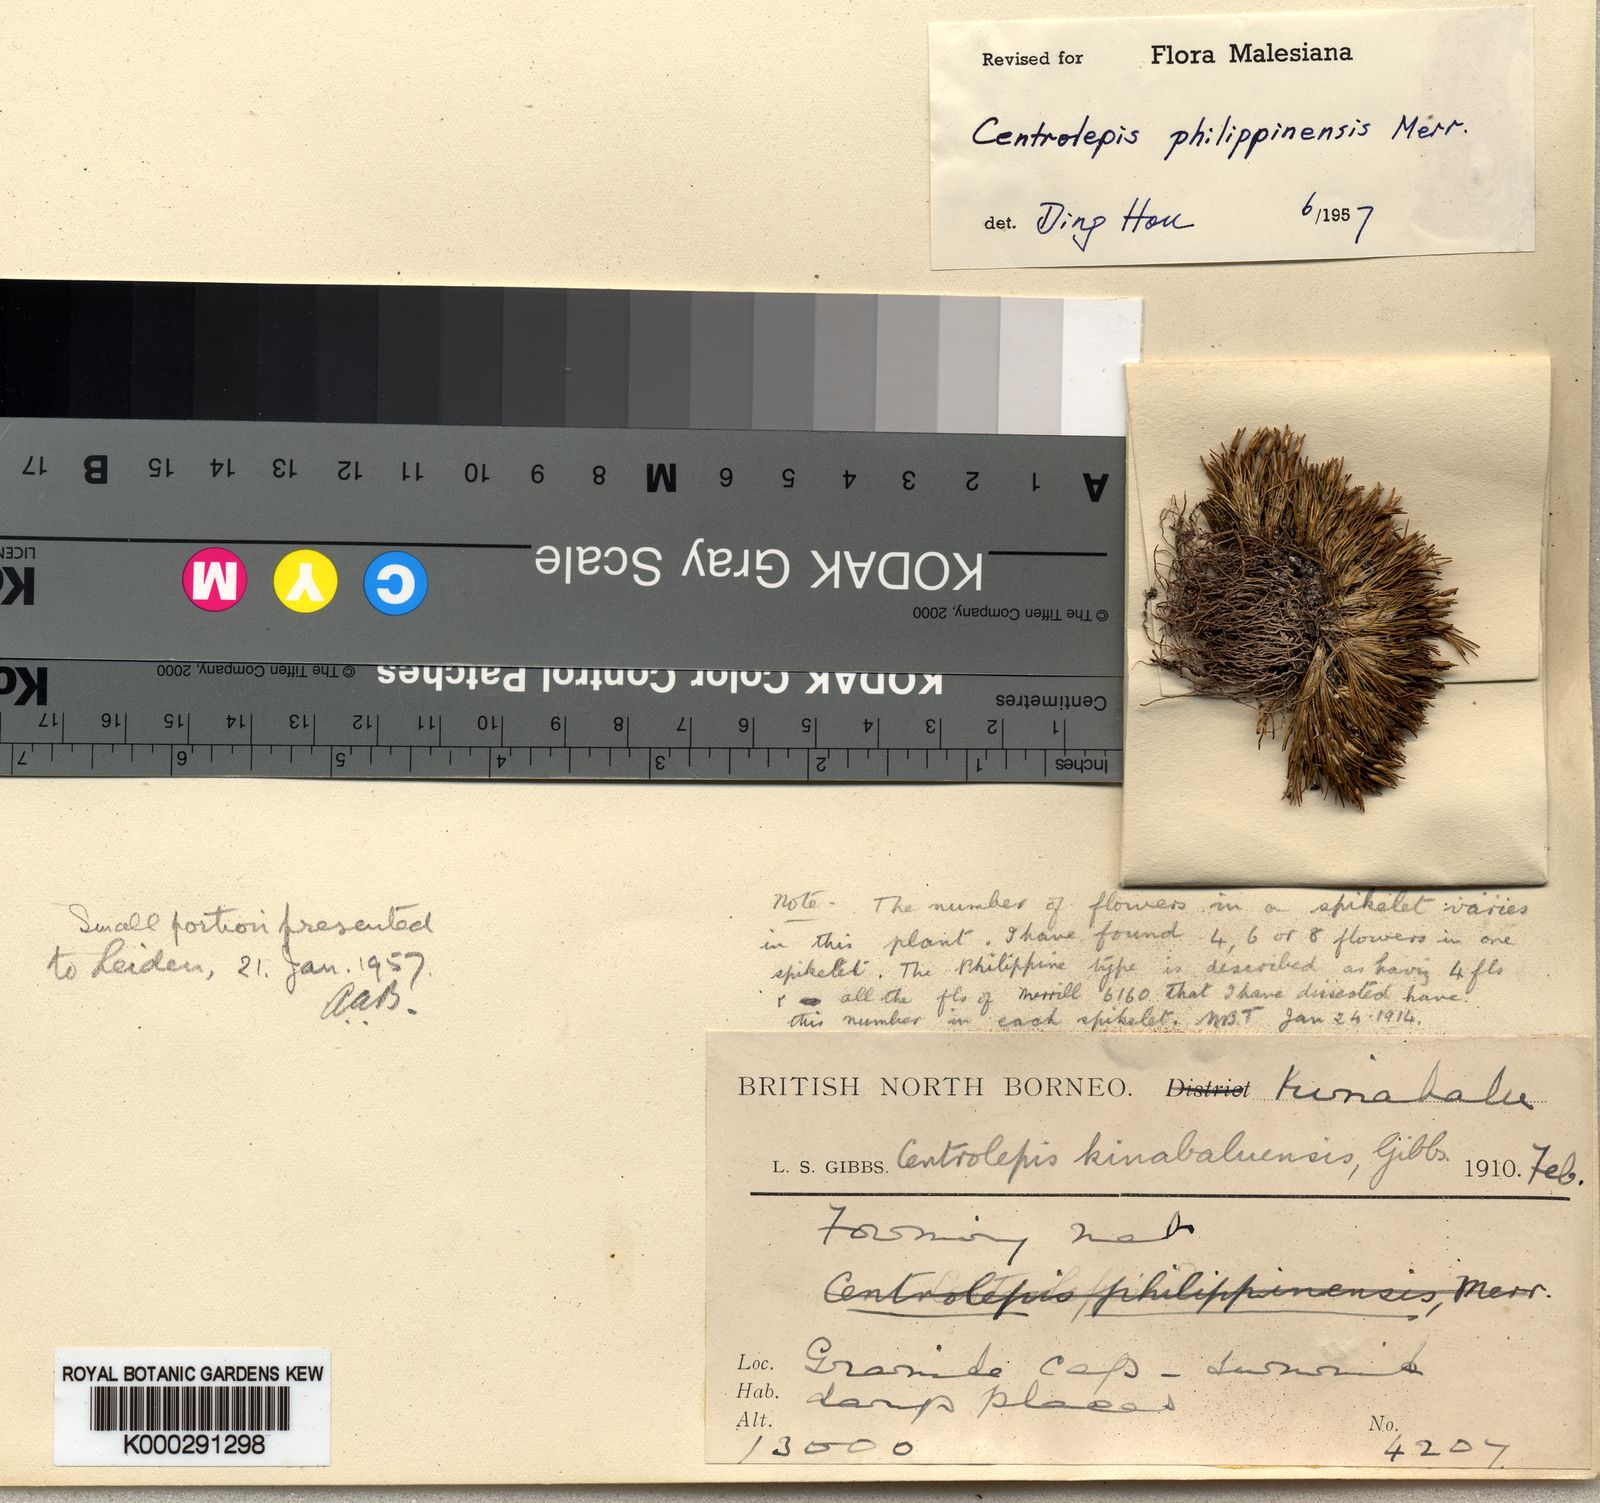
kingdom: Plantae
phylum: Tracheophyta
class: Liliopsida
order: Poales
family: Restionaceae
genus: Centrolepis
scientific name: Centrolepis philippinensis
